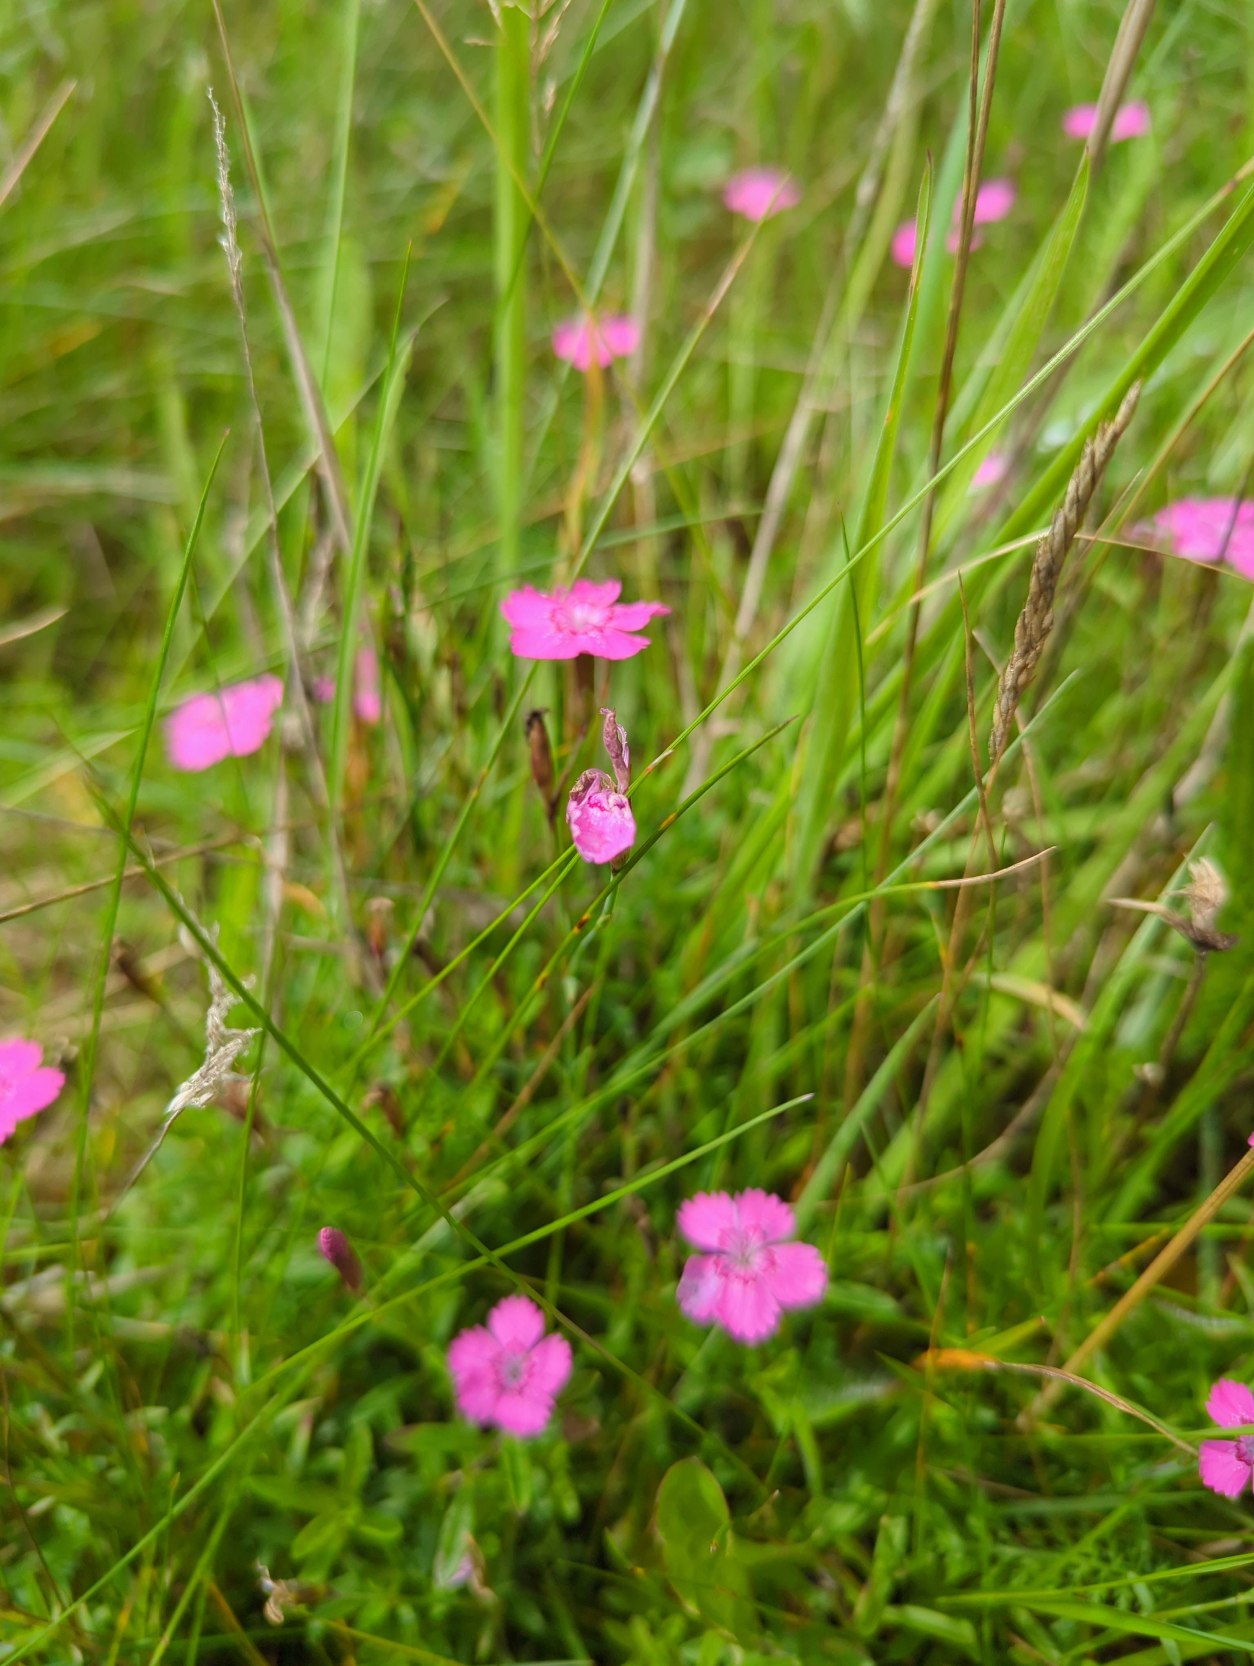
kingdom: Plantae
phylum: Tracheophyta
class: Magnoliopsida
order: Caryophyllales
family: Caryophyllaceae
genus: Dianthus
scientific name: Dianthus deltoides
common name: Bakke-nellike
